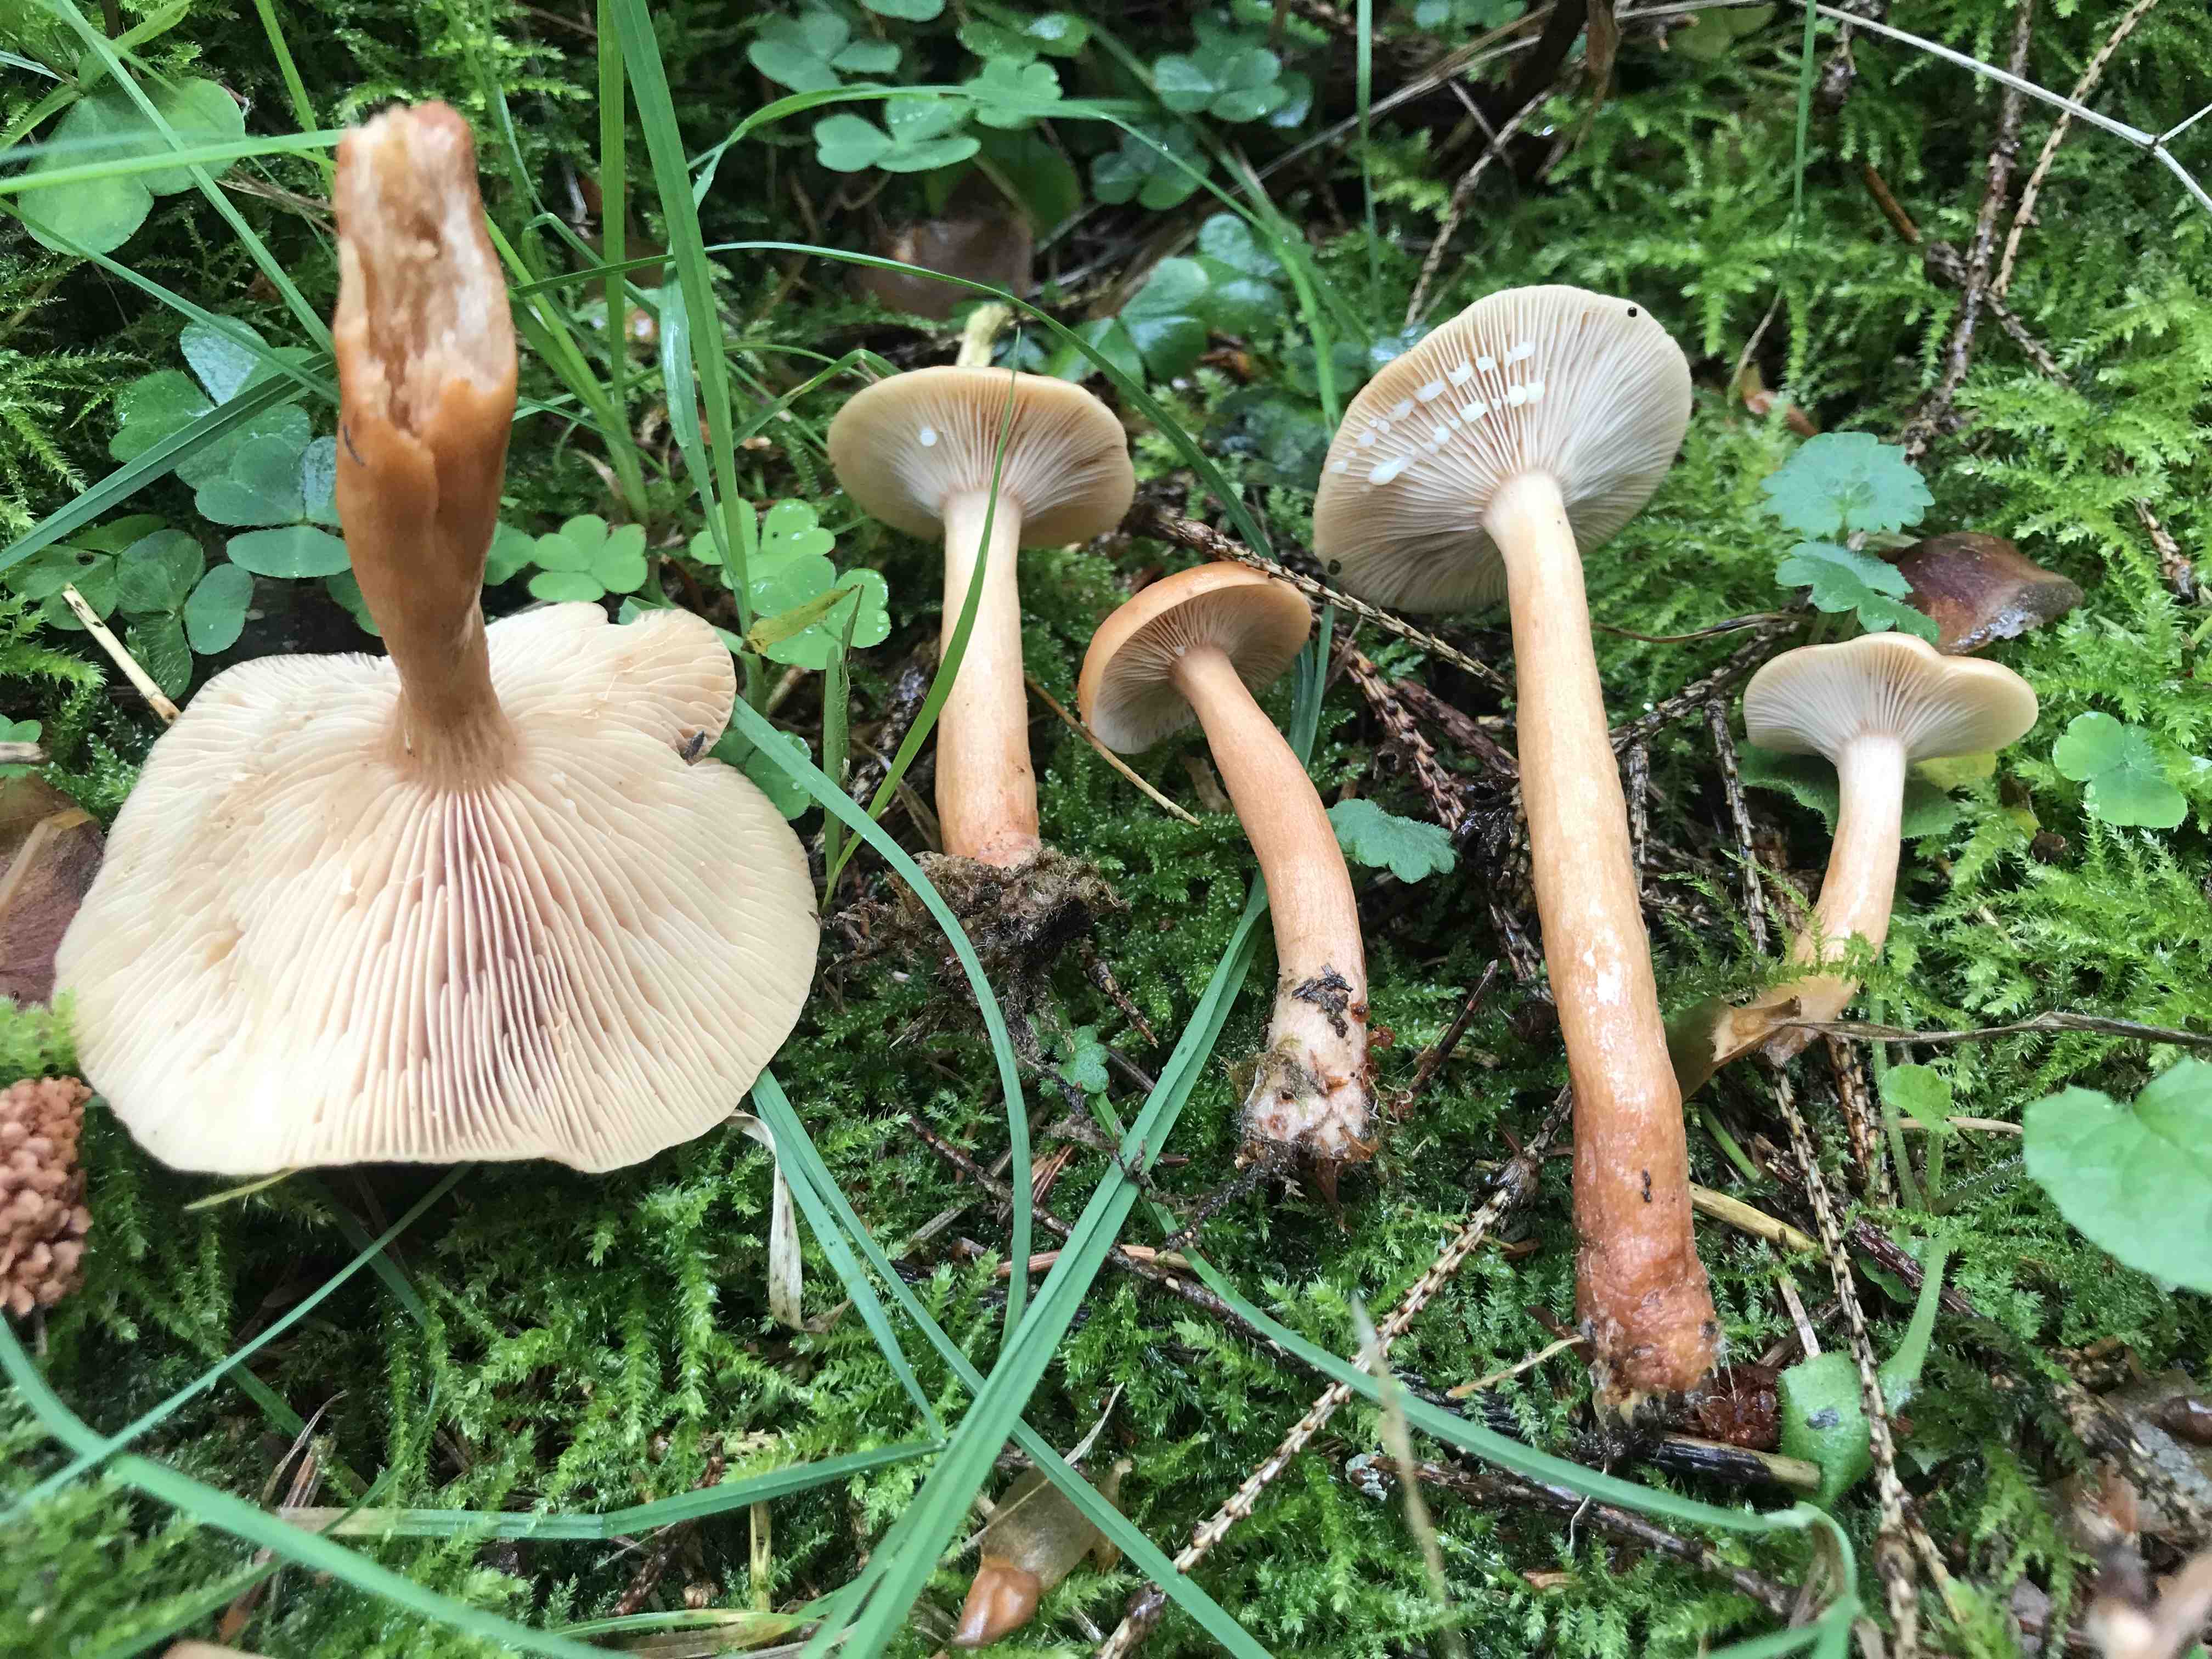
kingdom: Fungi
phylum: Basidiomycota
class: Agaricomycetes
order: Russulales
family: Russulaceae
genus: Lactarius
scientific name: Lactarius tabidus
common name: rynket mælkehat
